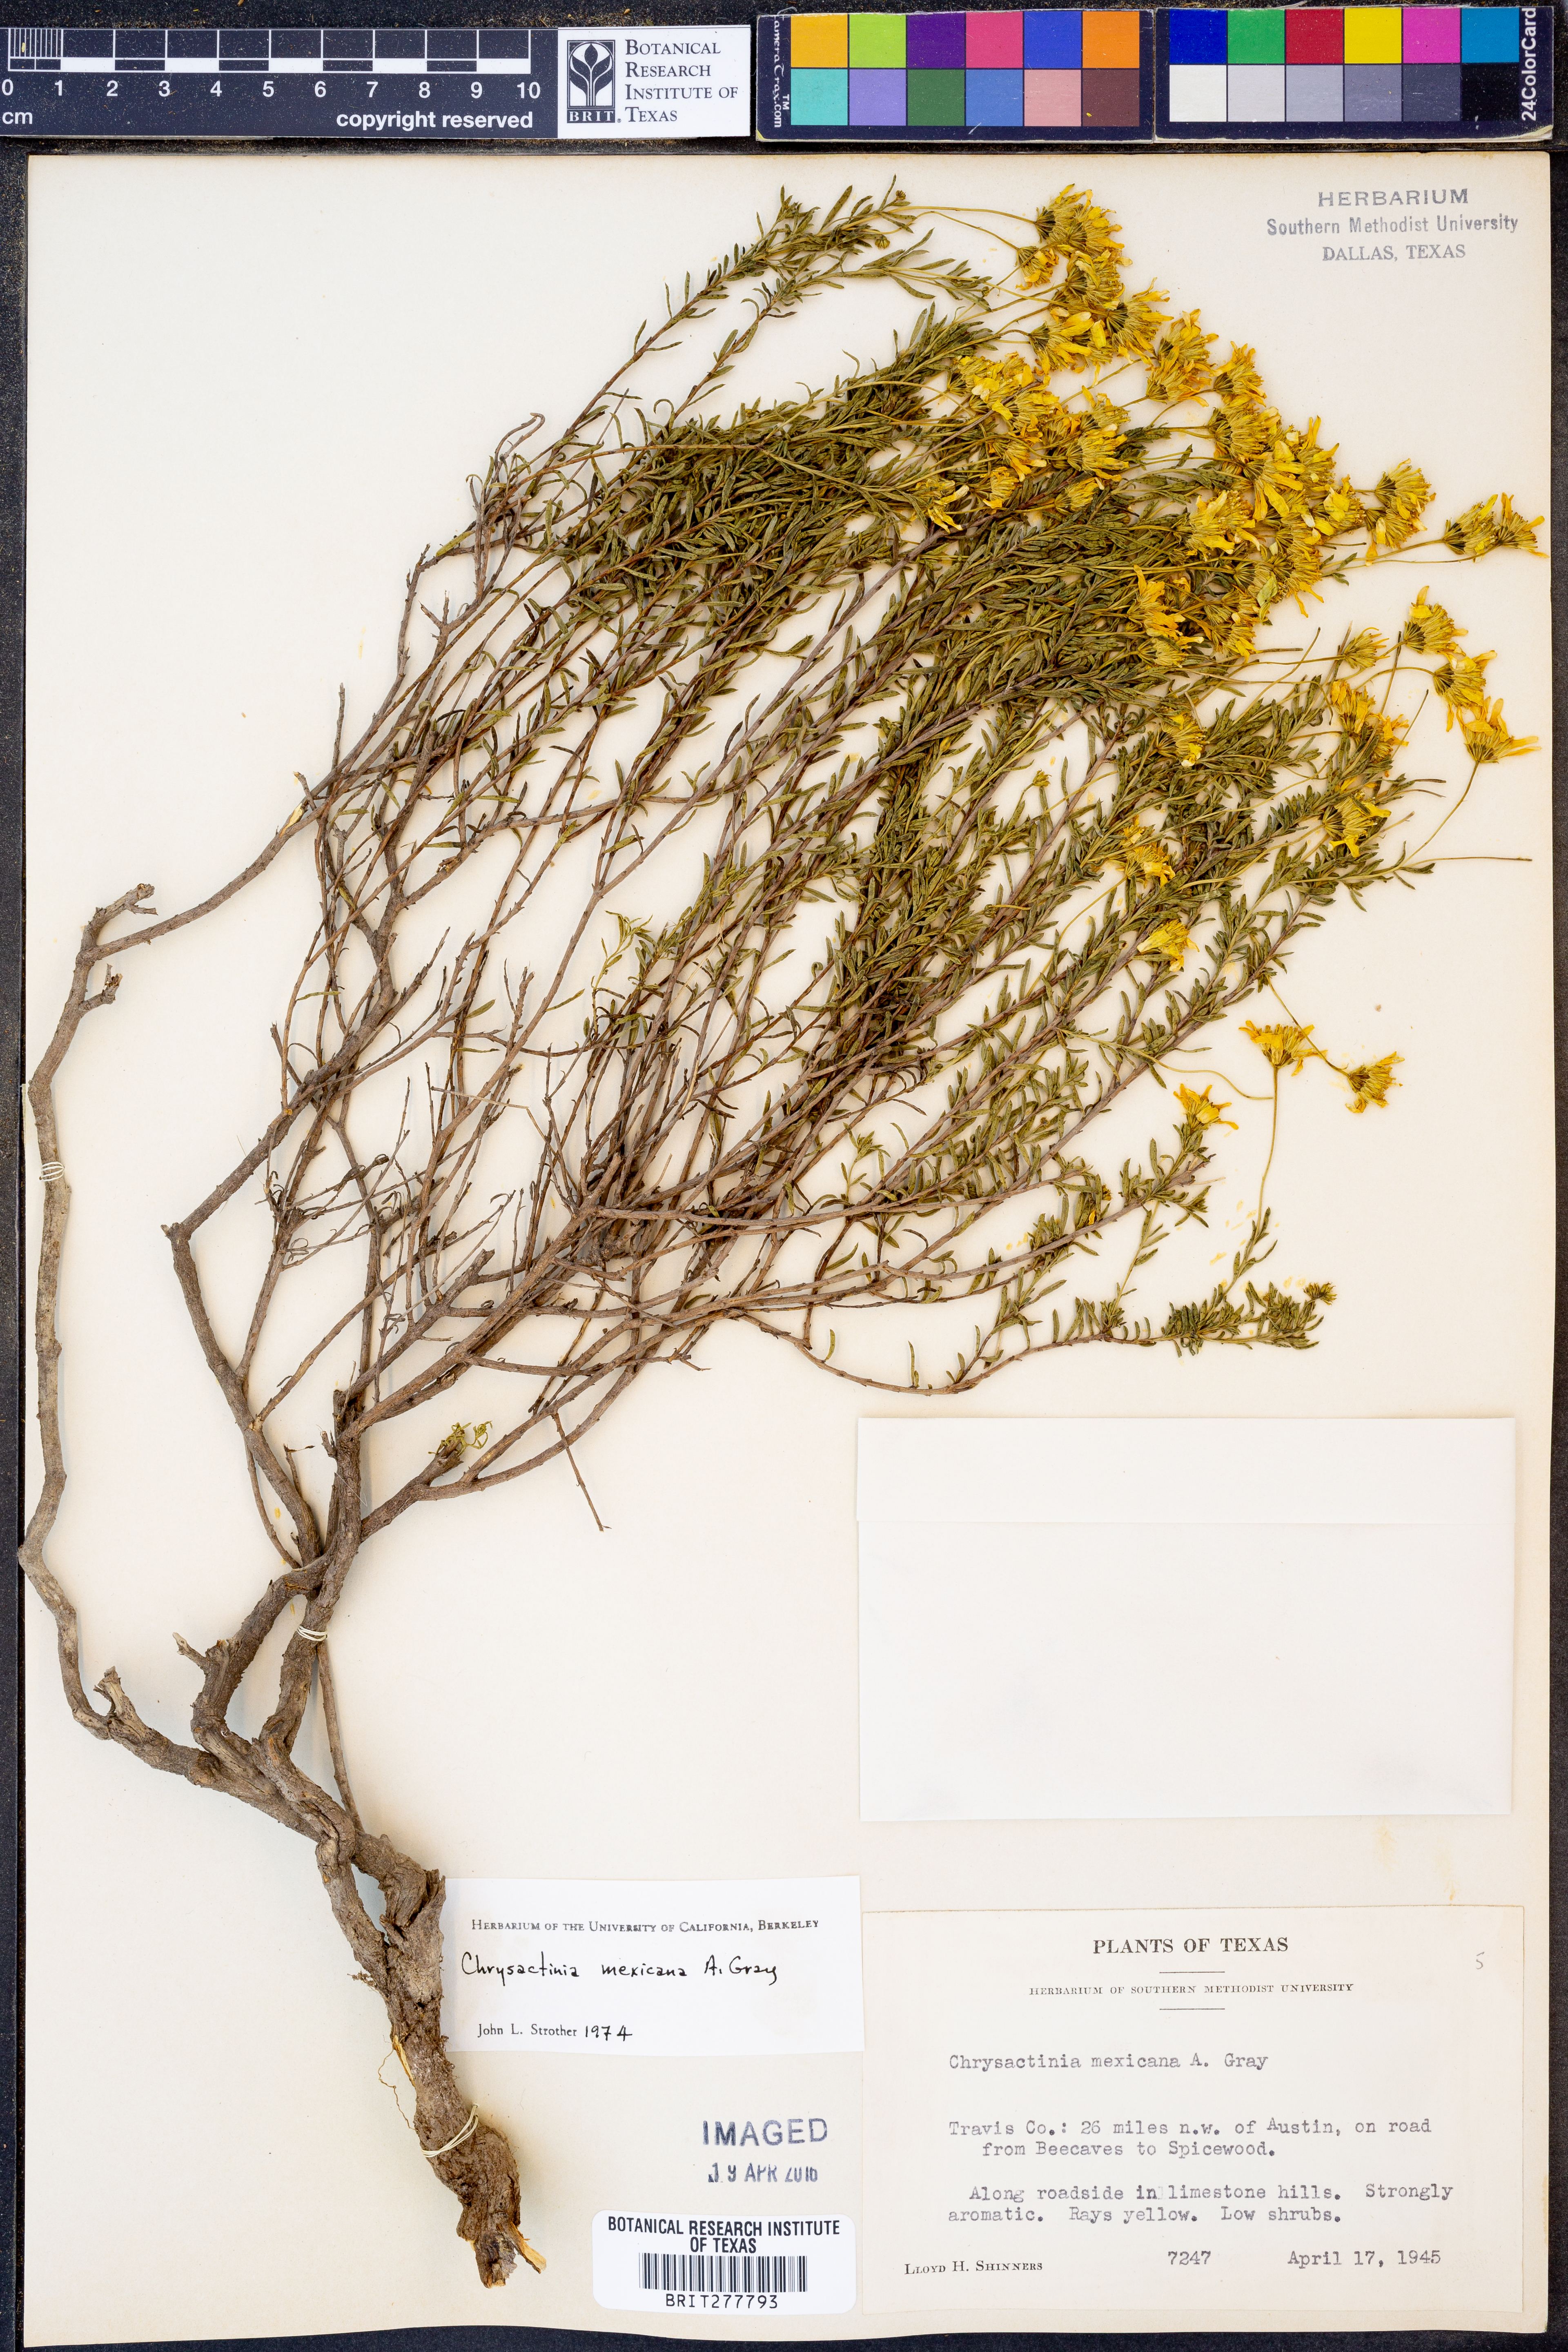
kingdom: Plantae
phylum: Tracheophyta
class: Magnoliopsida
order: Asterales
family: Asteraceae
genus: Chrysactinia
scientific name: Chrysactinia mexicana
